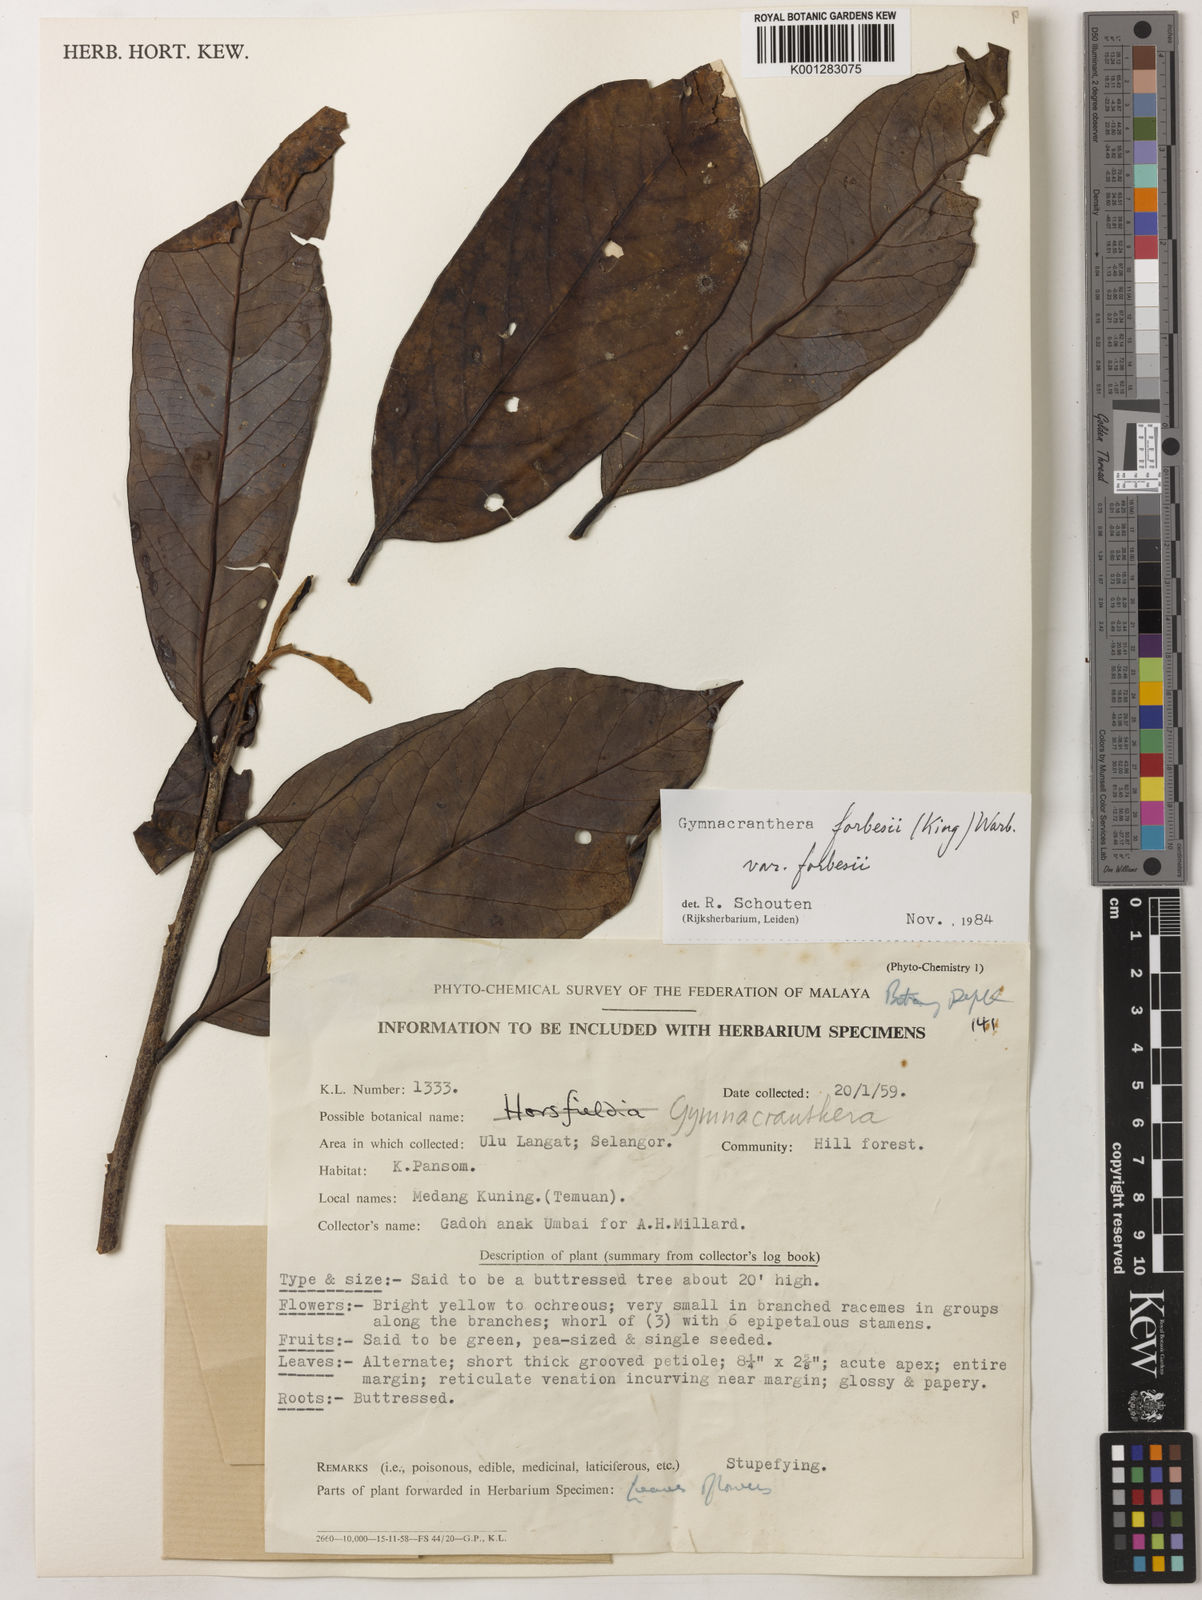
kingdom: Plantae
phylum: Tracheophyta
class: Magnoliopsida
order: Magnoliales
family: Myristicaceae
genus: Gymnacranthera
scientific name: Gymnacranthera forbesii
